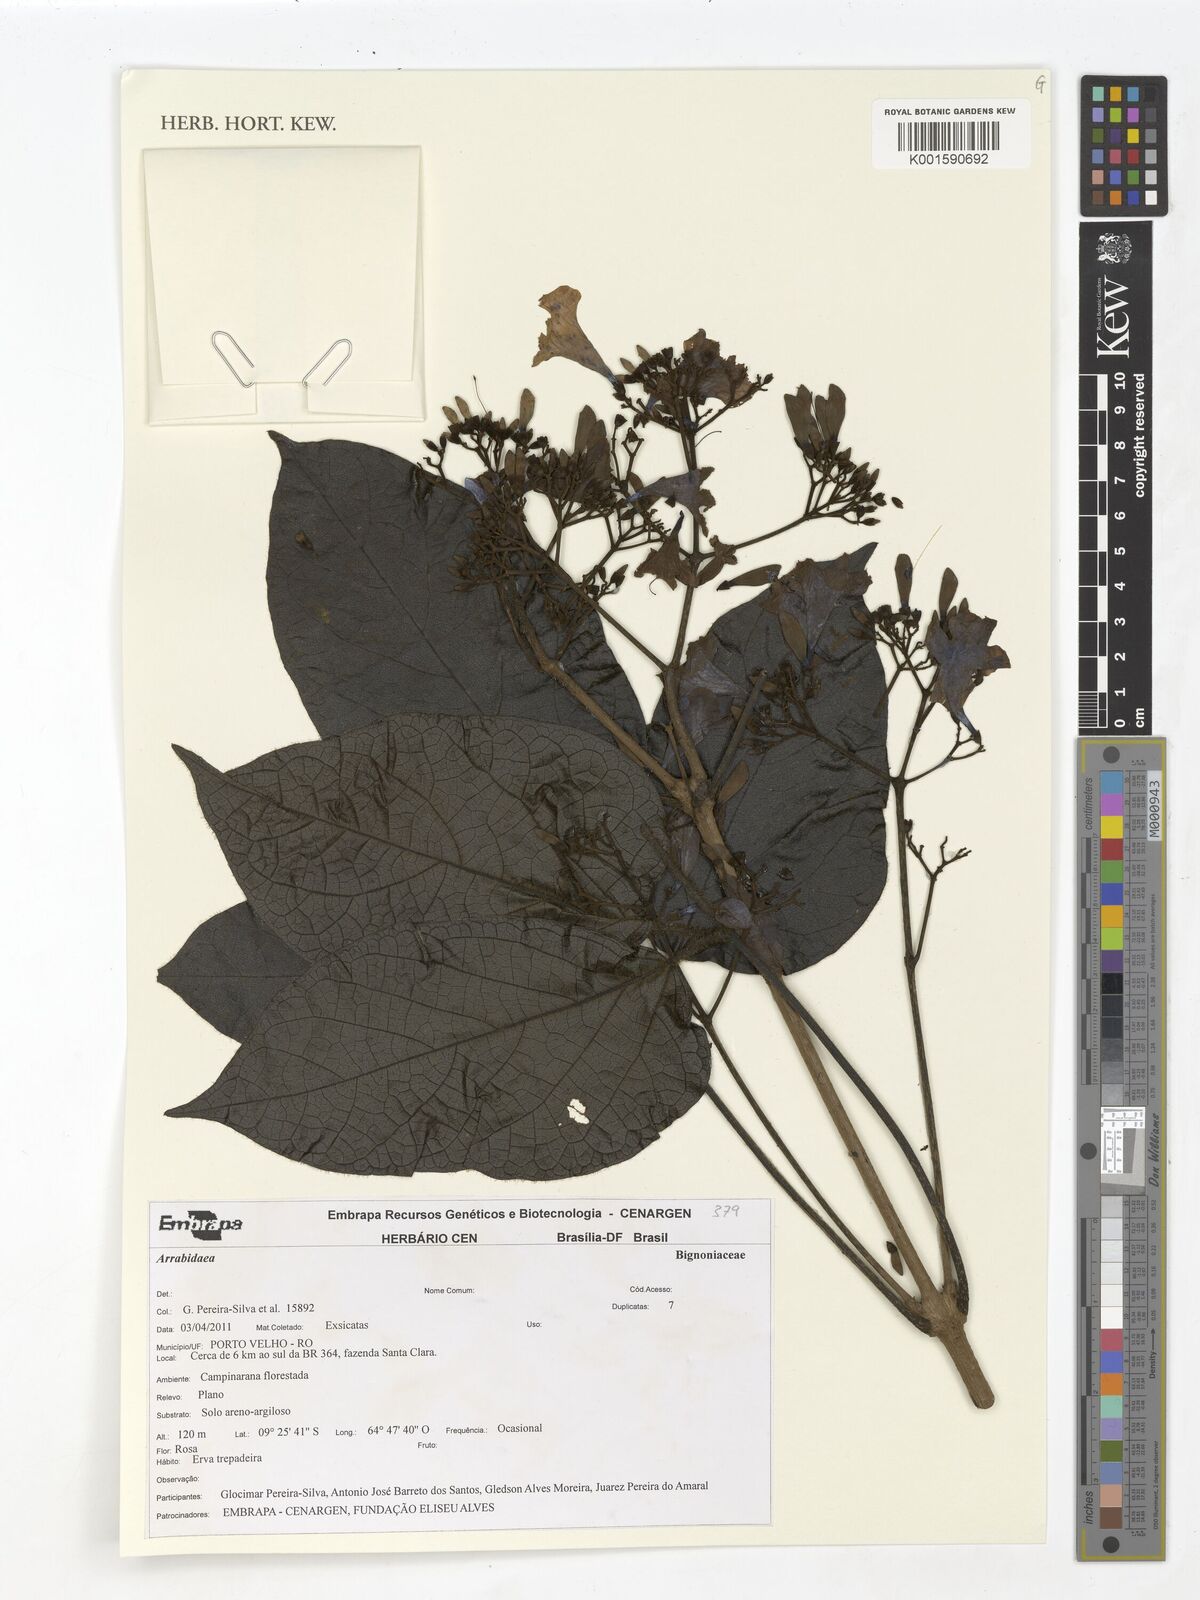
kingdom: Plantae
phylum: Tracheophyta
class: Magnoliopsida
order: Rosales
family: Rhamnaceae
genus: Arrabidaea
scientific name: Arrabidaea
